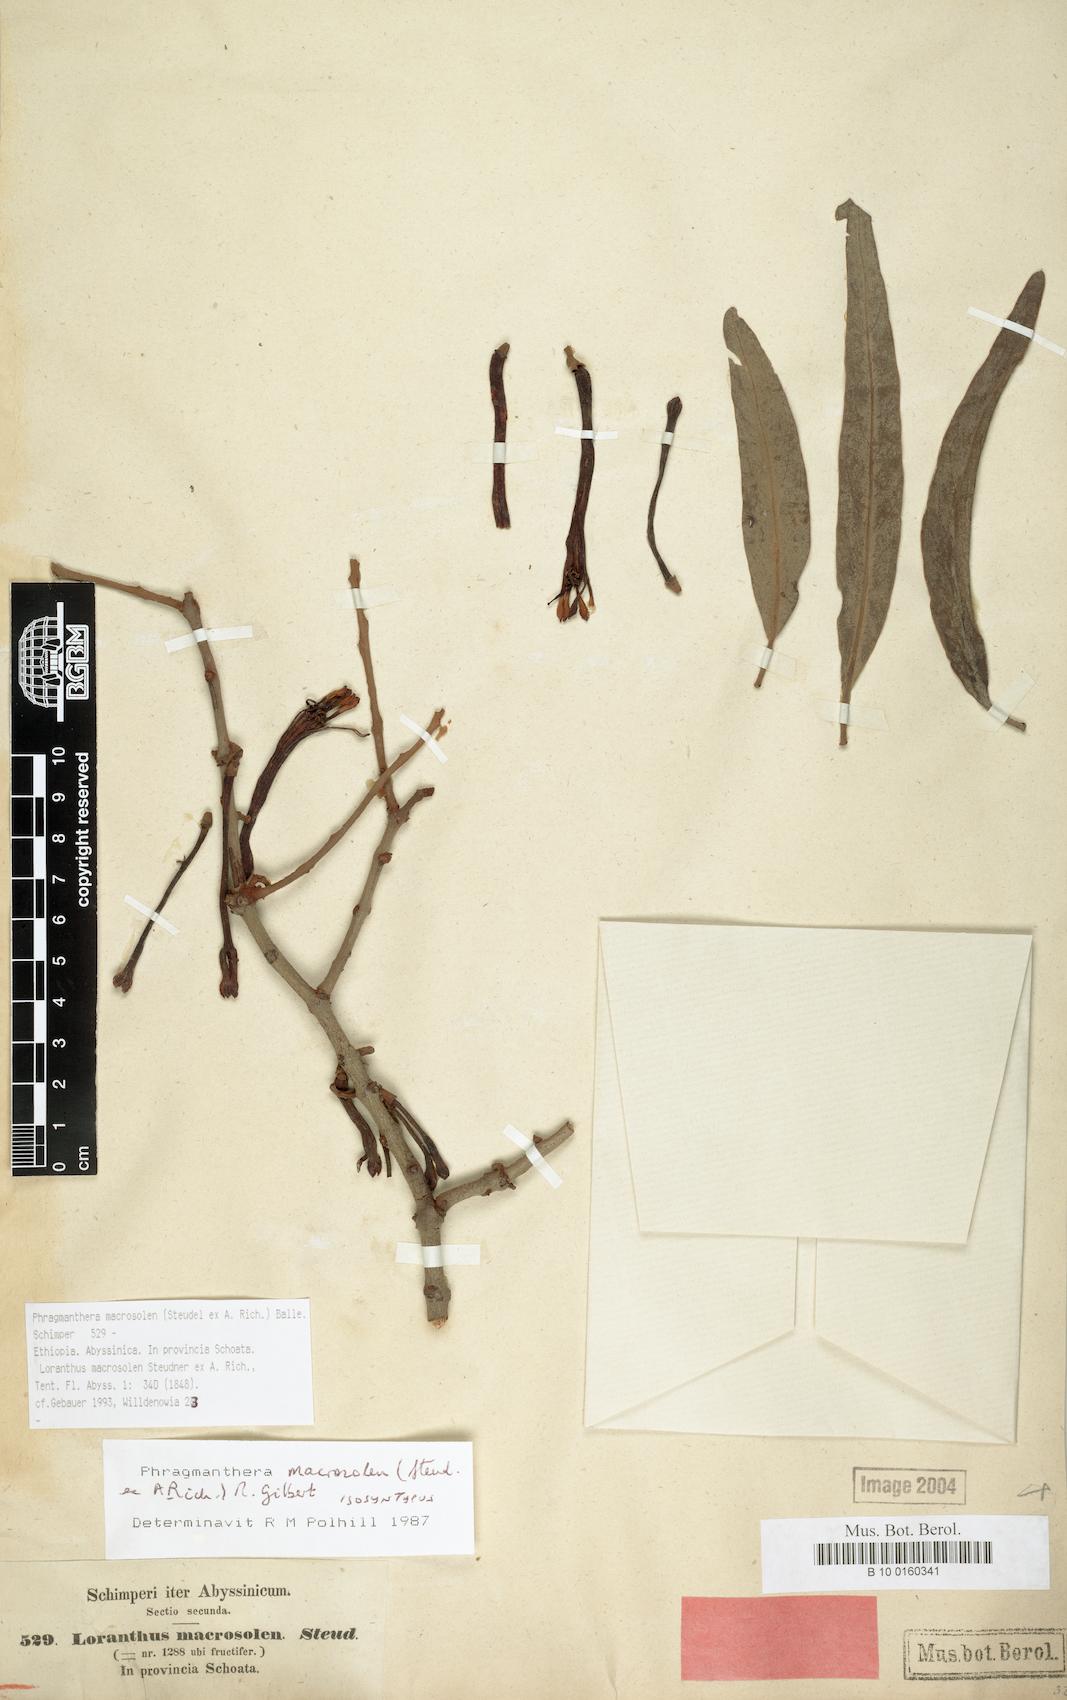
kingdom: Plantae
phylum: Tracheophyta
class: Magnoliopsida
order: Santalales
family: Loranthaceae
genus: Phragmanthera
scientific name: Phragmanthera macrosolen
